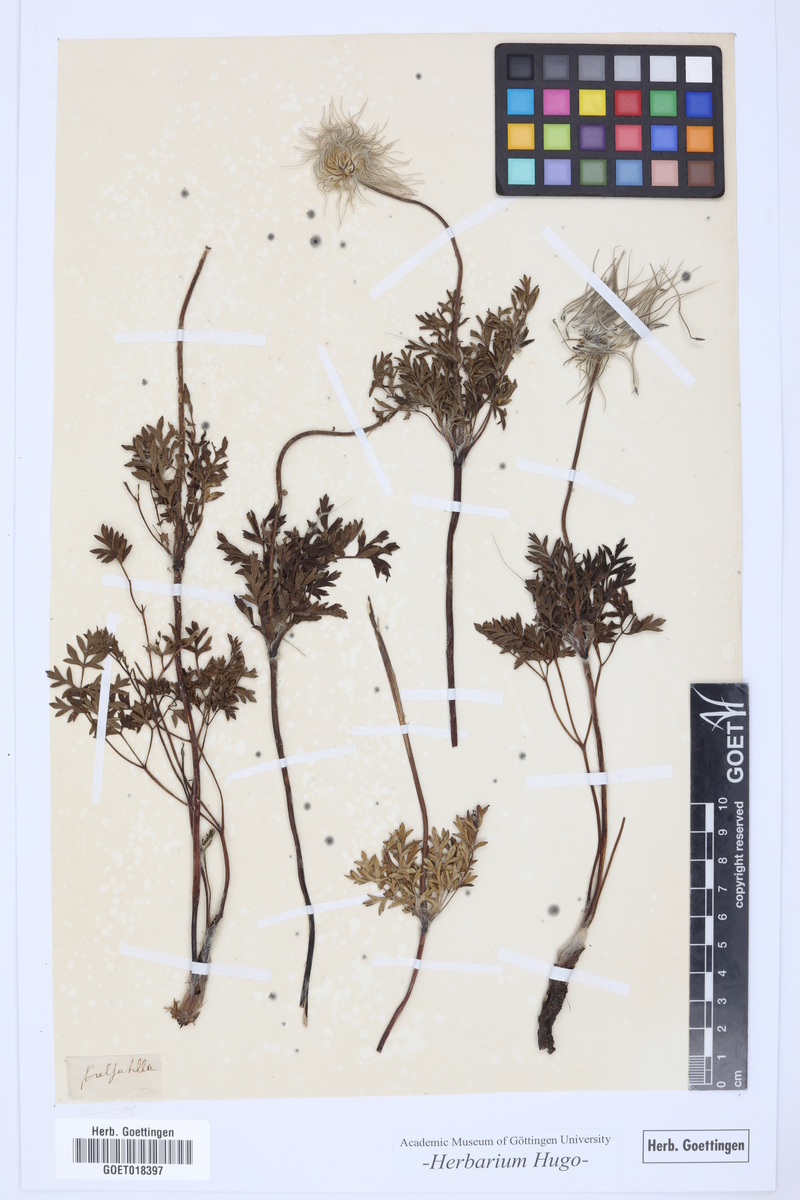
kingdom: Plantae
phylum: Tracheophyta
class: Magnoliopsida
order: Ranunculales
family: Ranunculaceae
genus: Pulsatilla
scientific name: Pulsatilla vulgaris
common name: Pasqueflower
